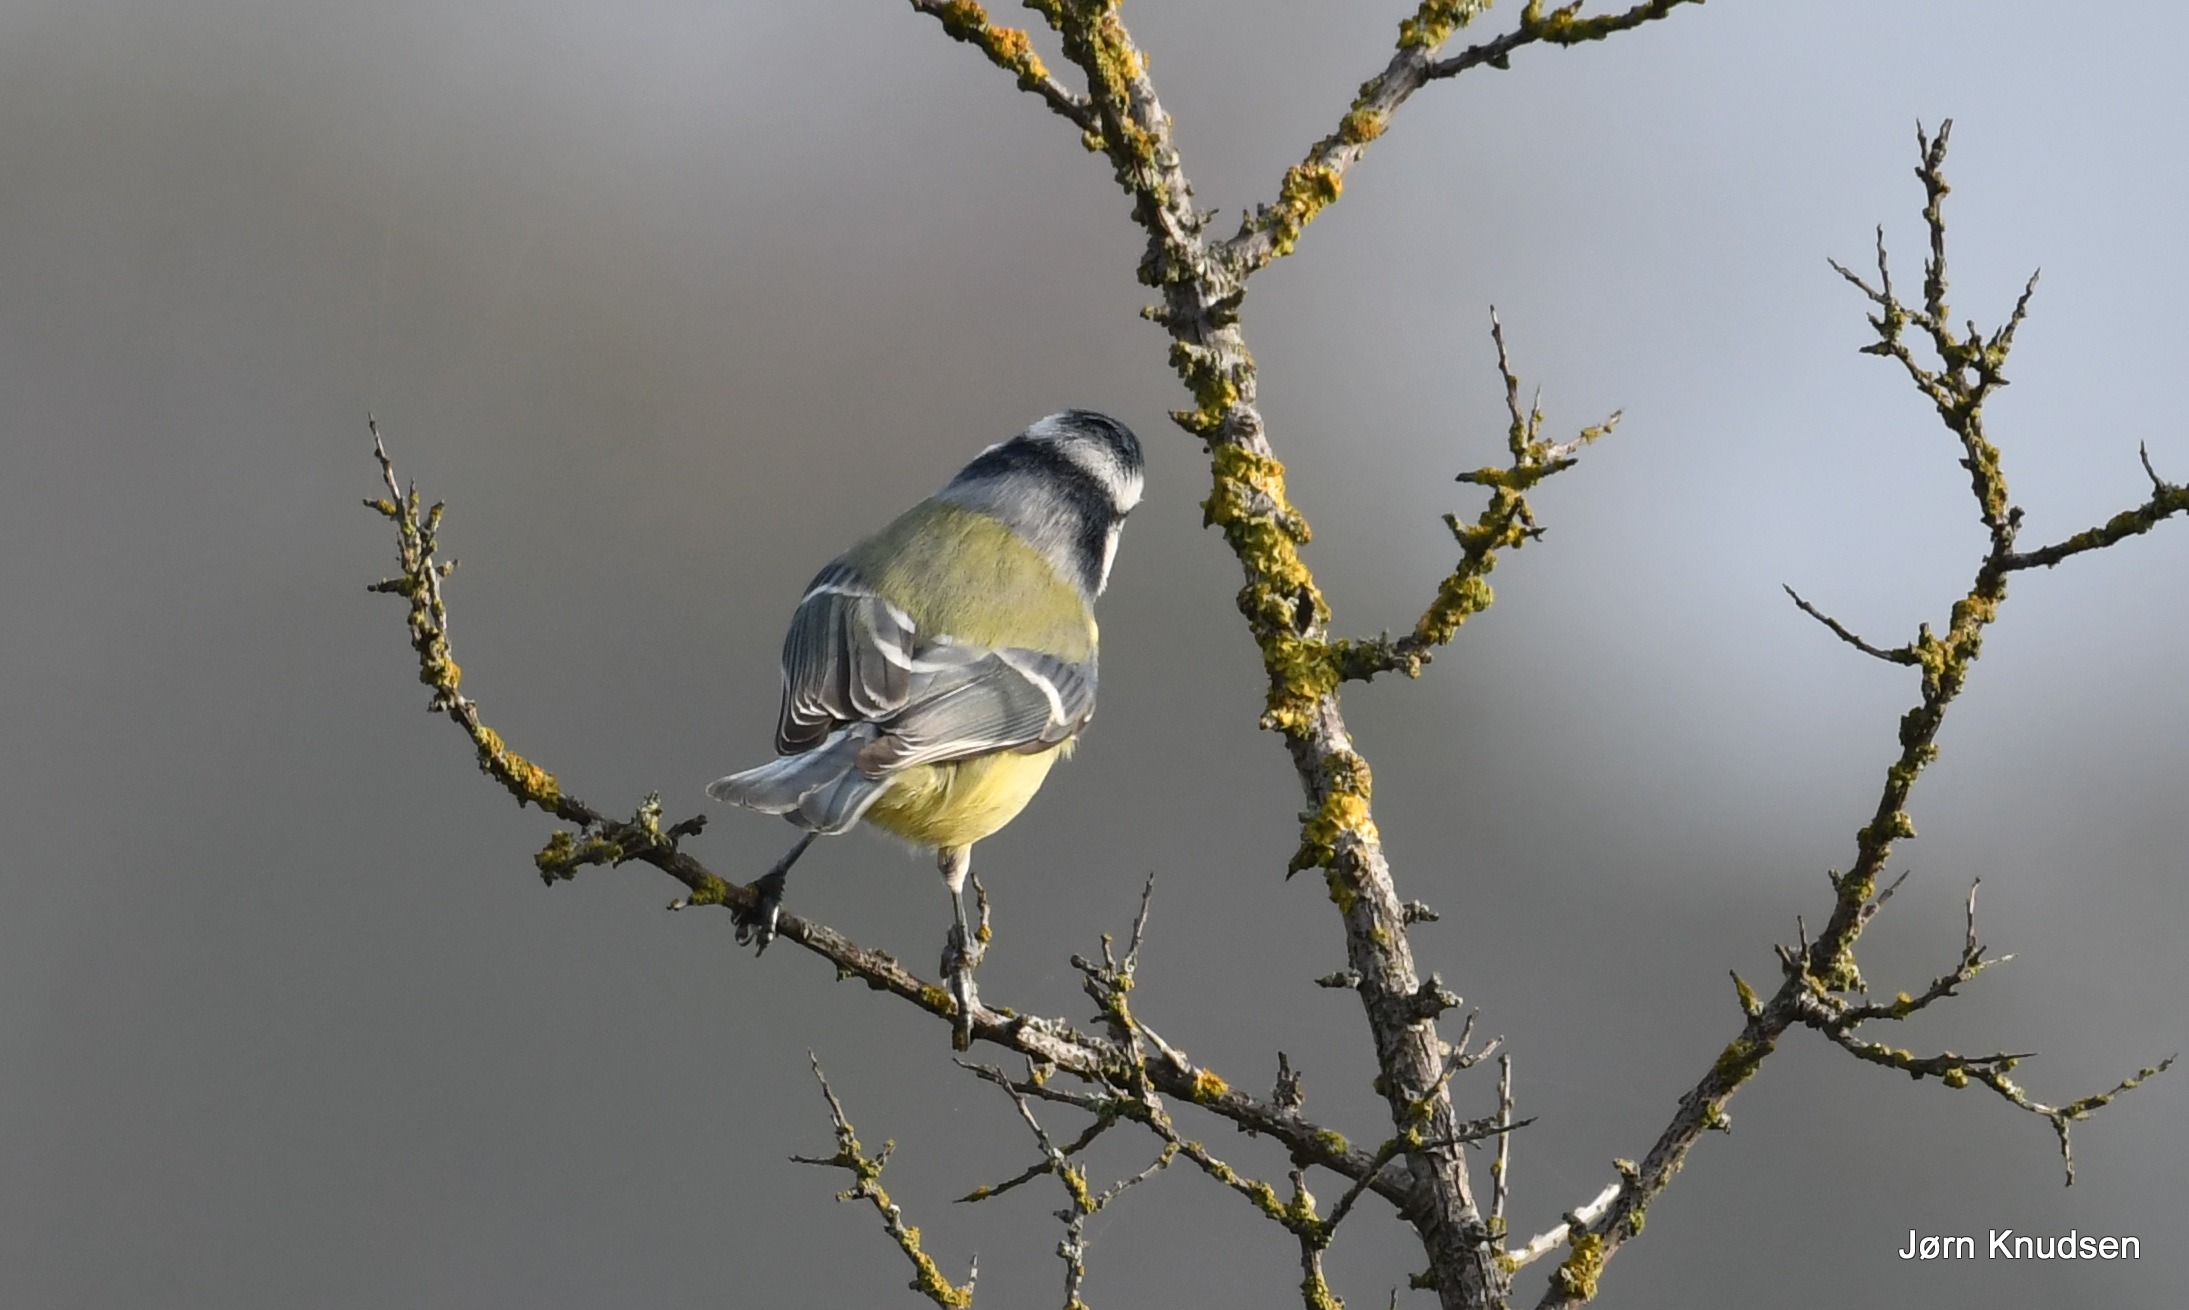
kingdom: Animalia
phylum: Chordata
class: Aves
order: Passeriformes
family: Paridae
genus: Cyanistes
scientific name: Cyanistes caeruleus
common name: Blåmejse
